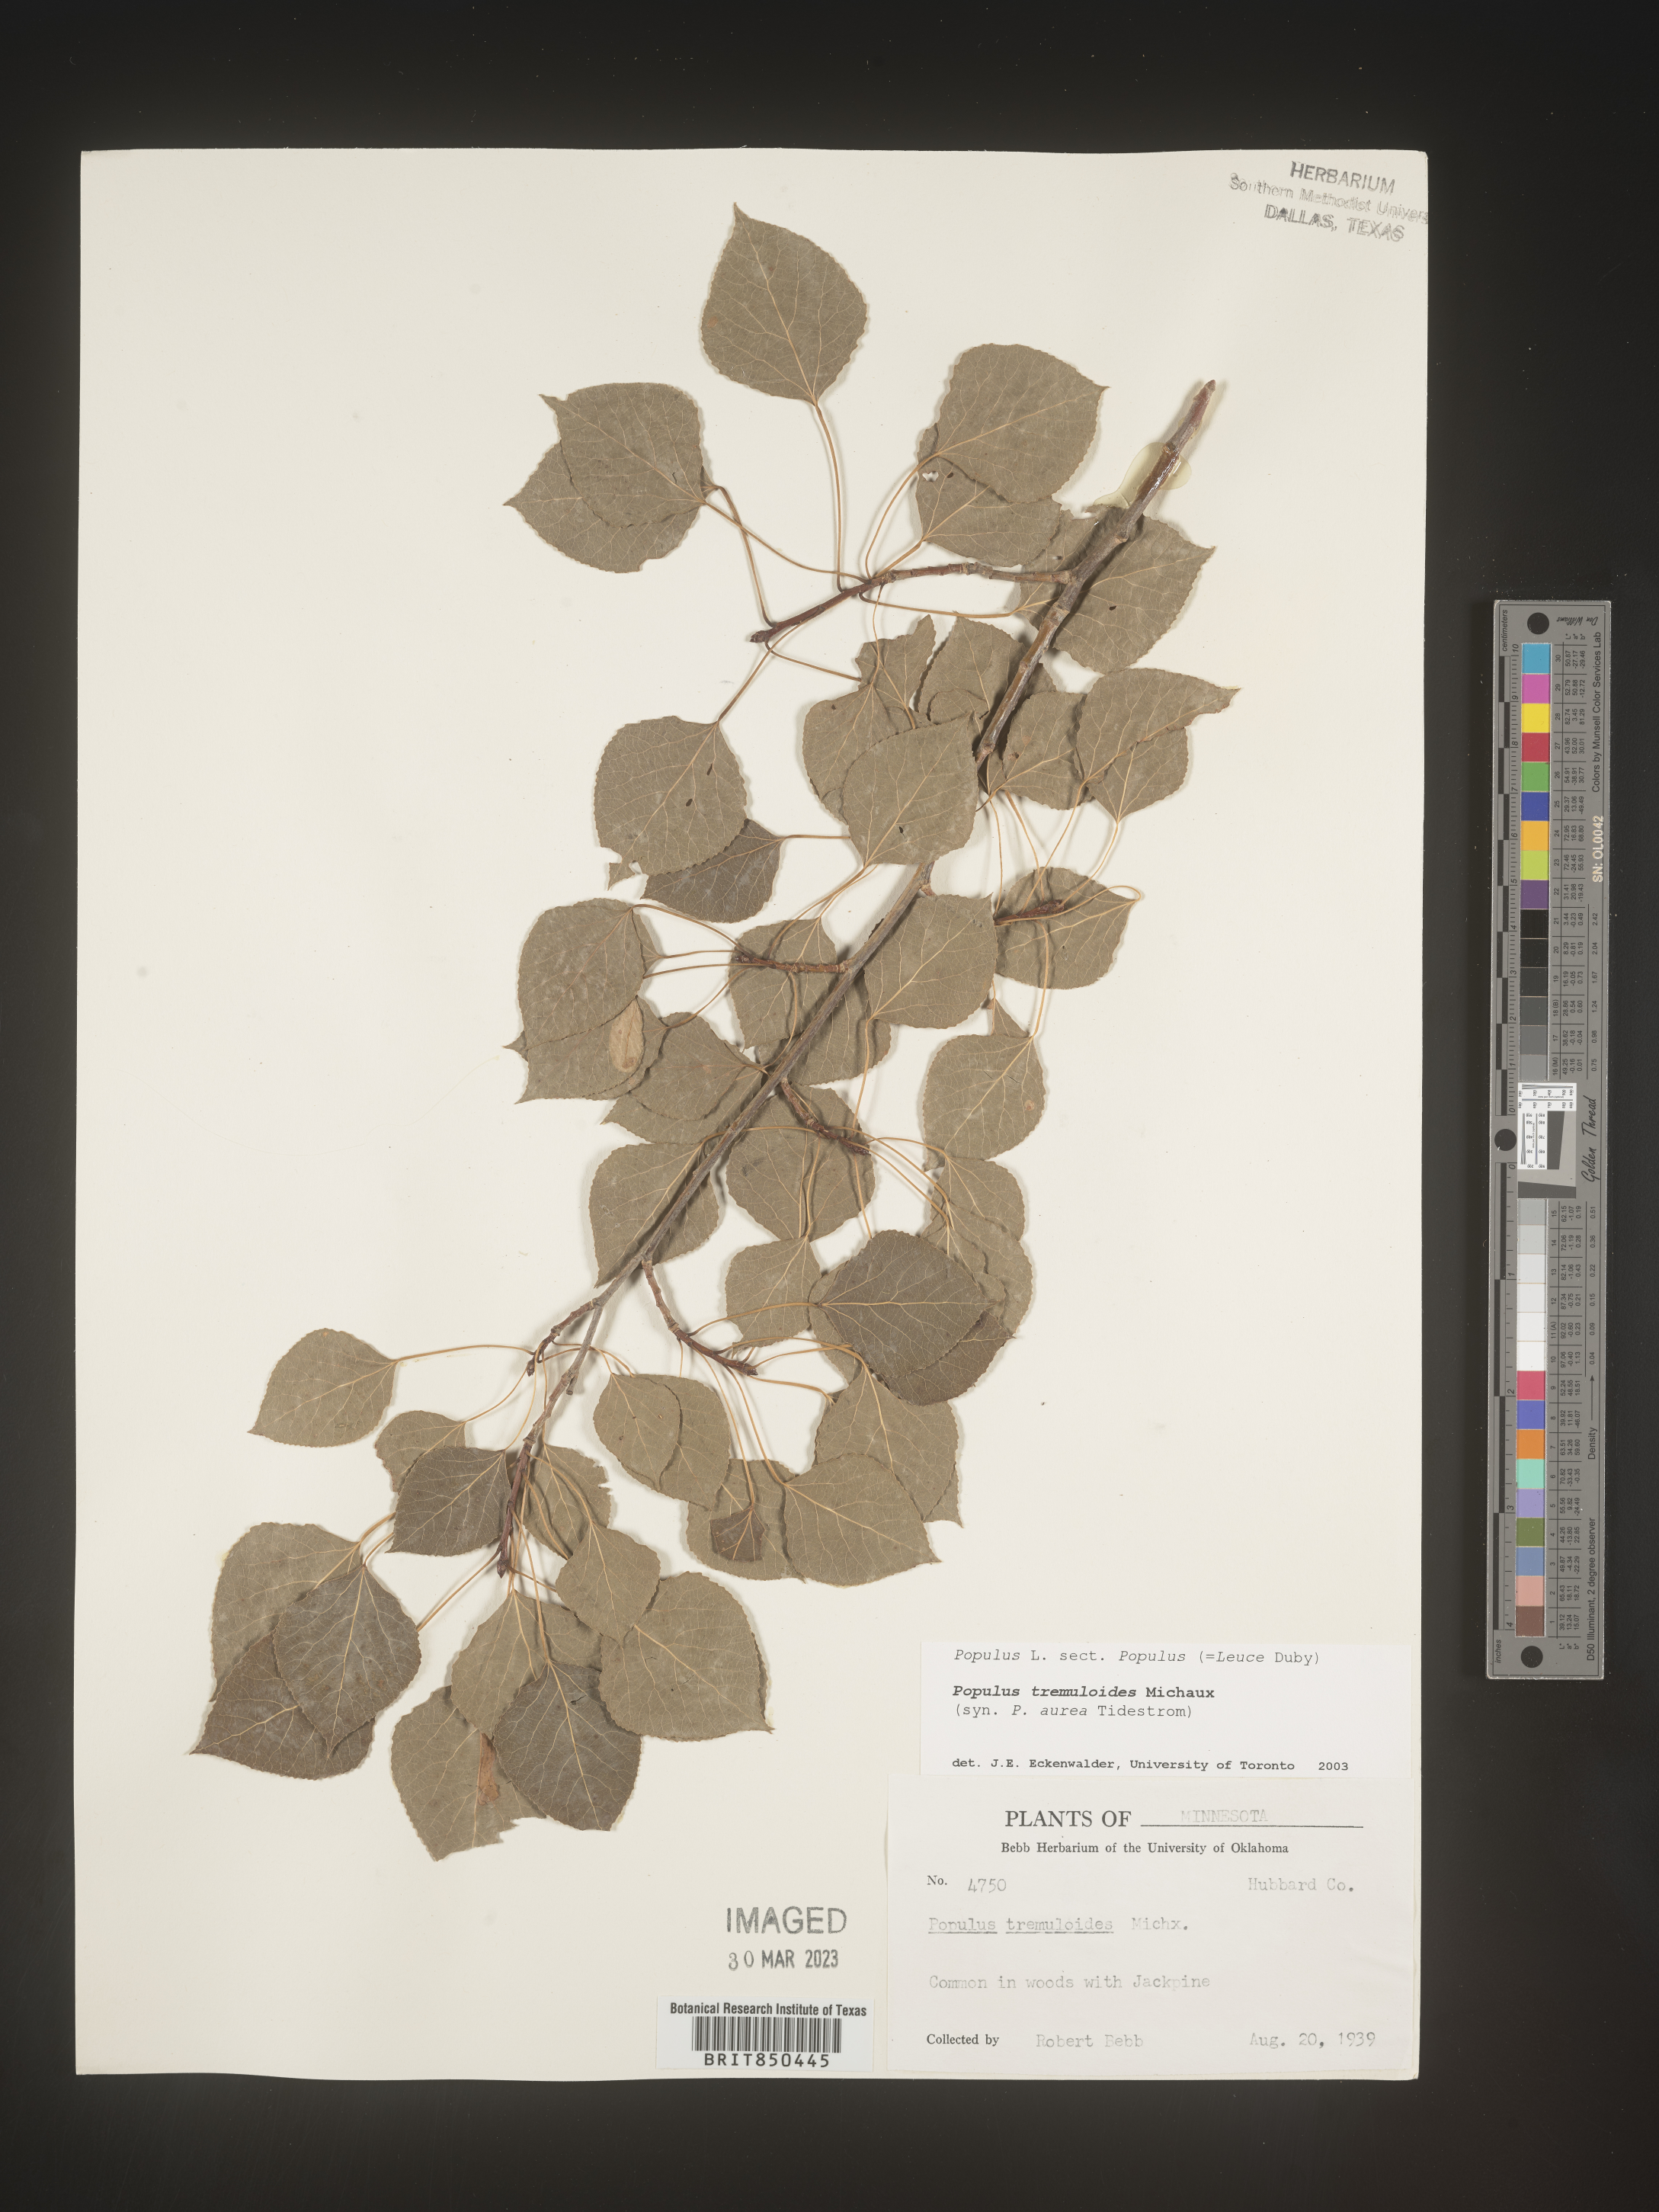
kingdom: Plantae
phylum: Tracheophyta
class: Magnoliopsida
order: Malpighiales
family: Salicaceae
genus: Populus
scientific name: Populus tremuloides
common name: Quaking aspen
